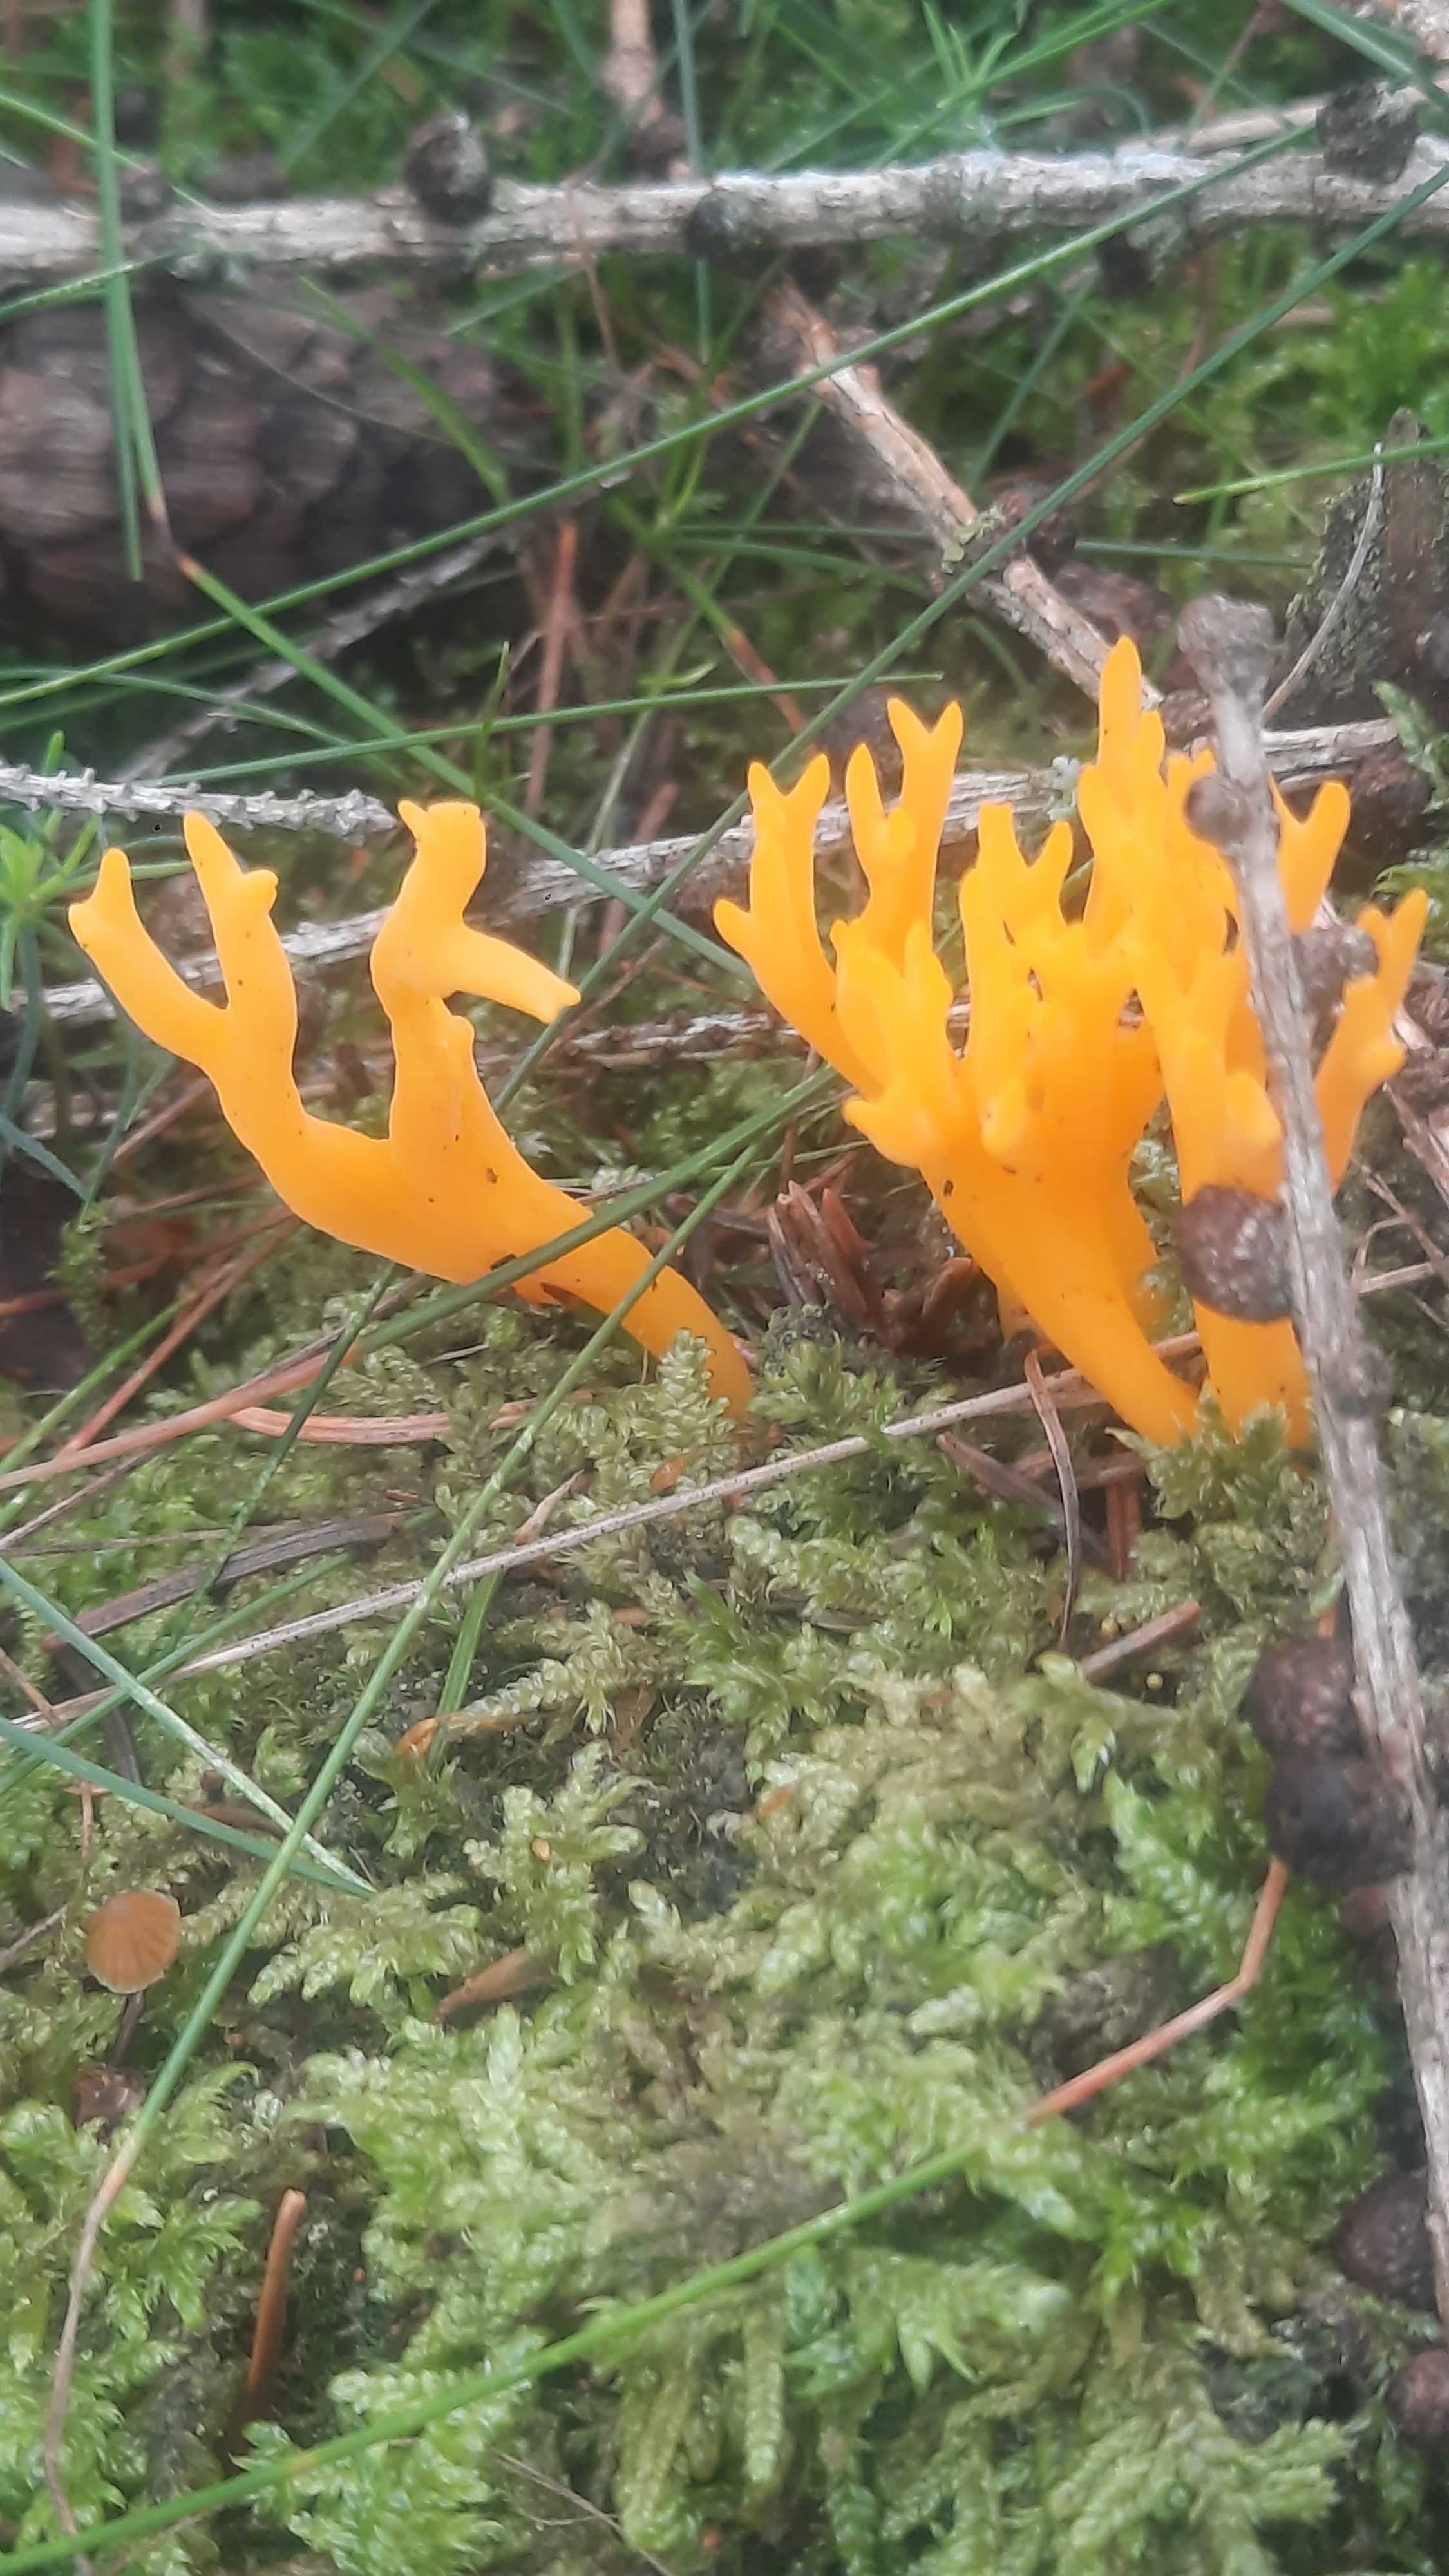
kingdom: Fungi
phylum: Basidiomycota
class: Dacrymycetes
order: Dacrymycetales
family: Dacrymycetaceae
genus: Calocera
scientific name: Calocera viscosa
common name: almindelig guldgaffel
